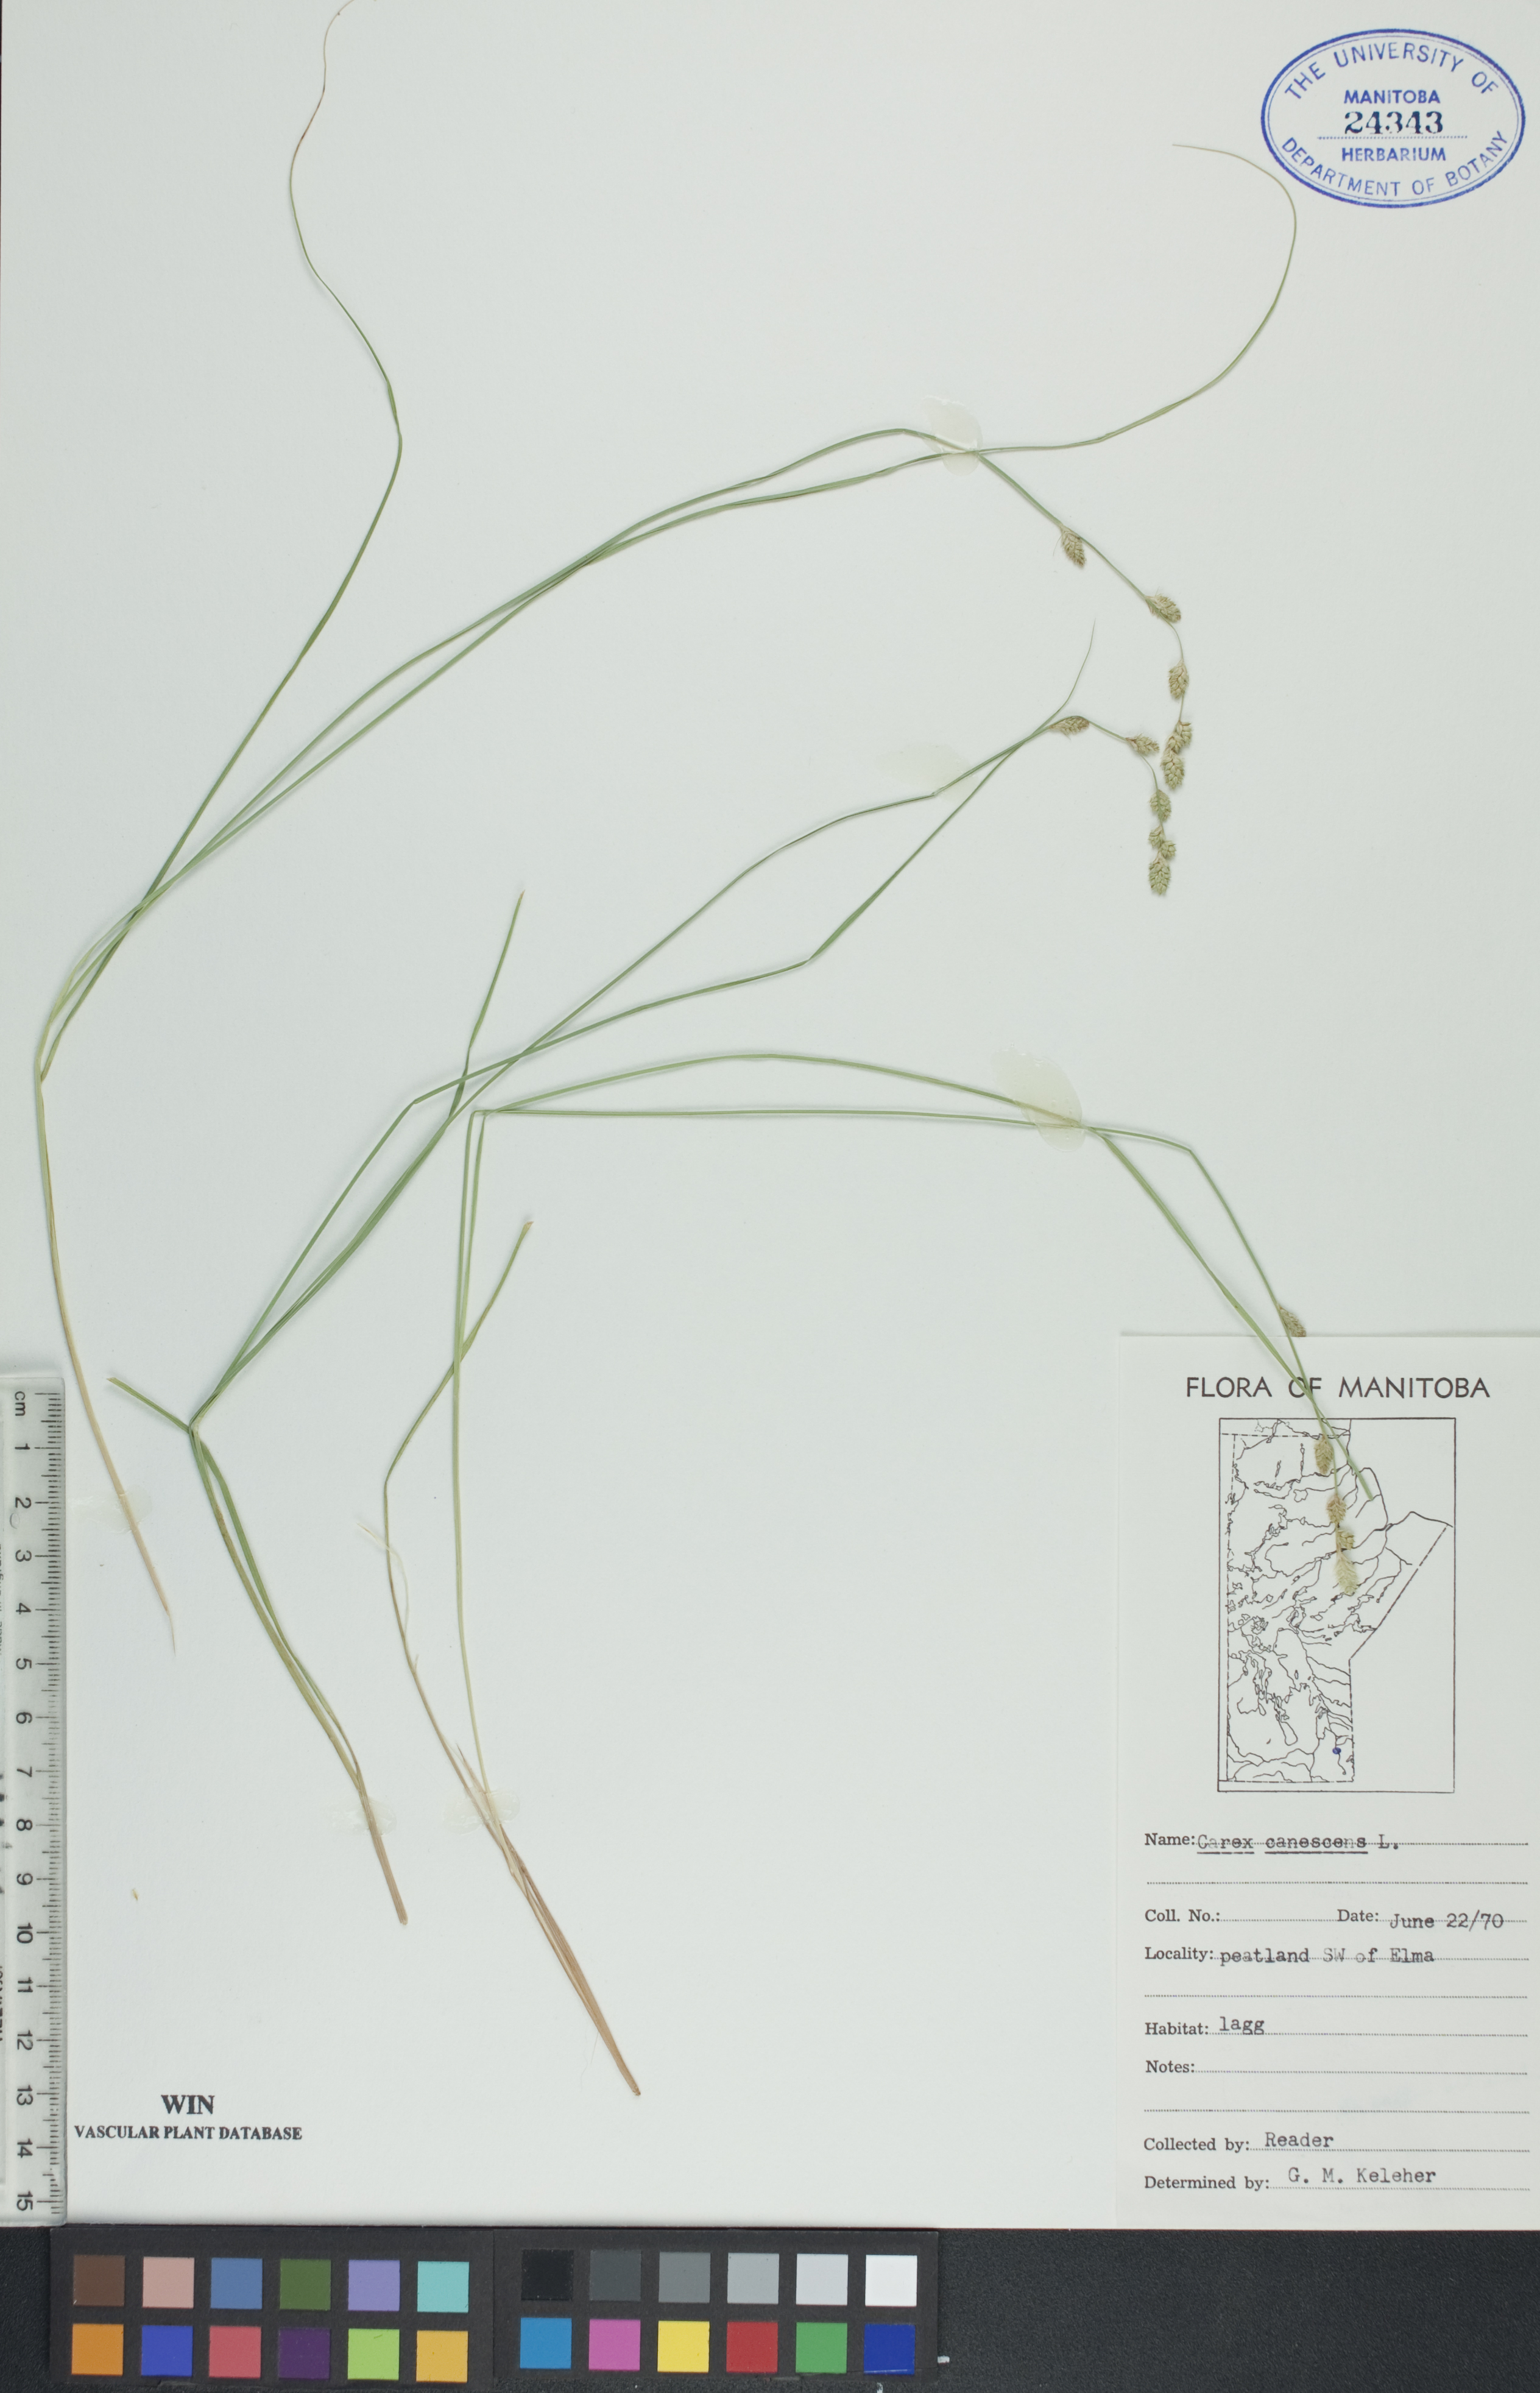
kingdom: Plantae
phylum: Tracheophyta
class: Liliopsida
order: Poales
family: Cyperaceae
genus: Carex
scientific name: Carex canescens
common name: White sedge
